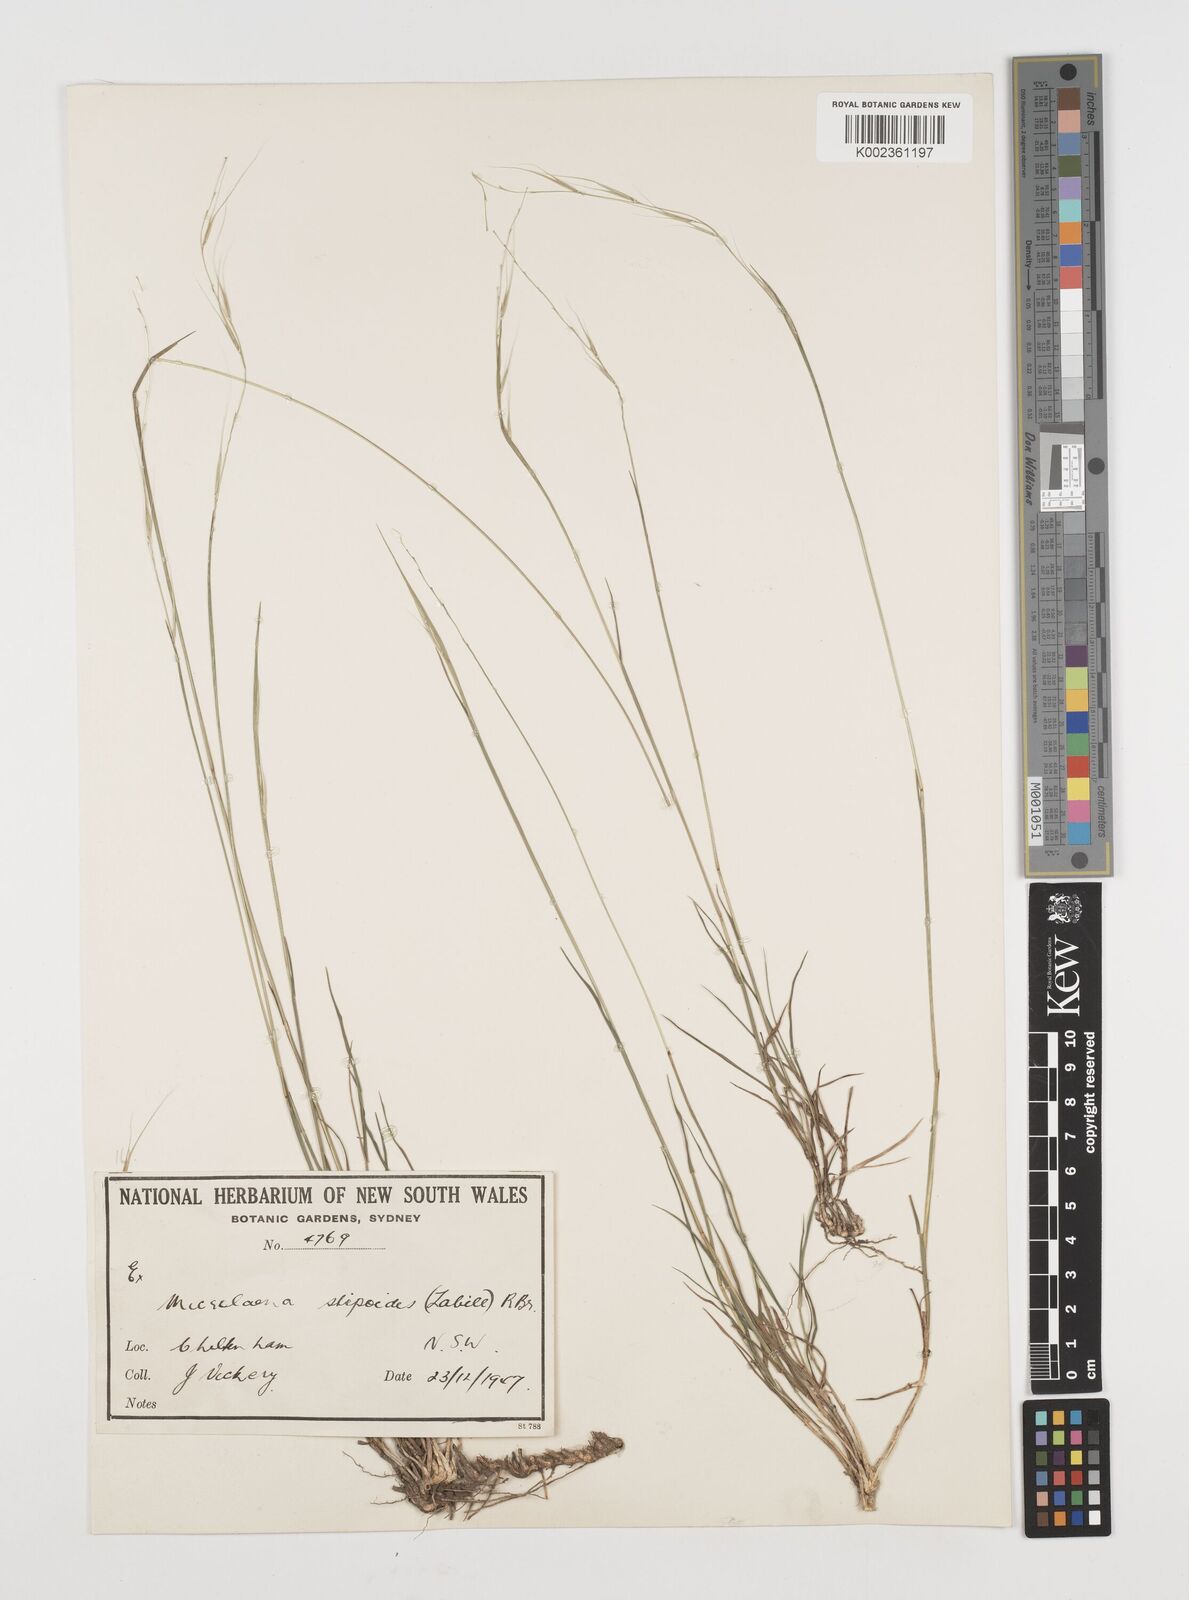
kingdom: Plantae
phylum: Tracheophyta
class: Liliopsida
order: Poales
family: Poaceae
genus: Microlaena
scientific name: Microlaena stipoides
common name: Meadow ricegrass
